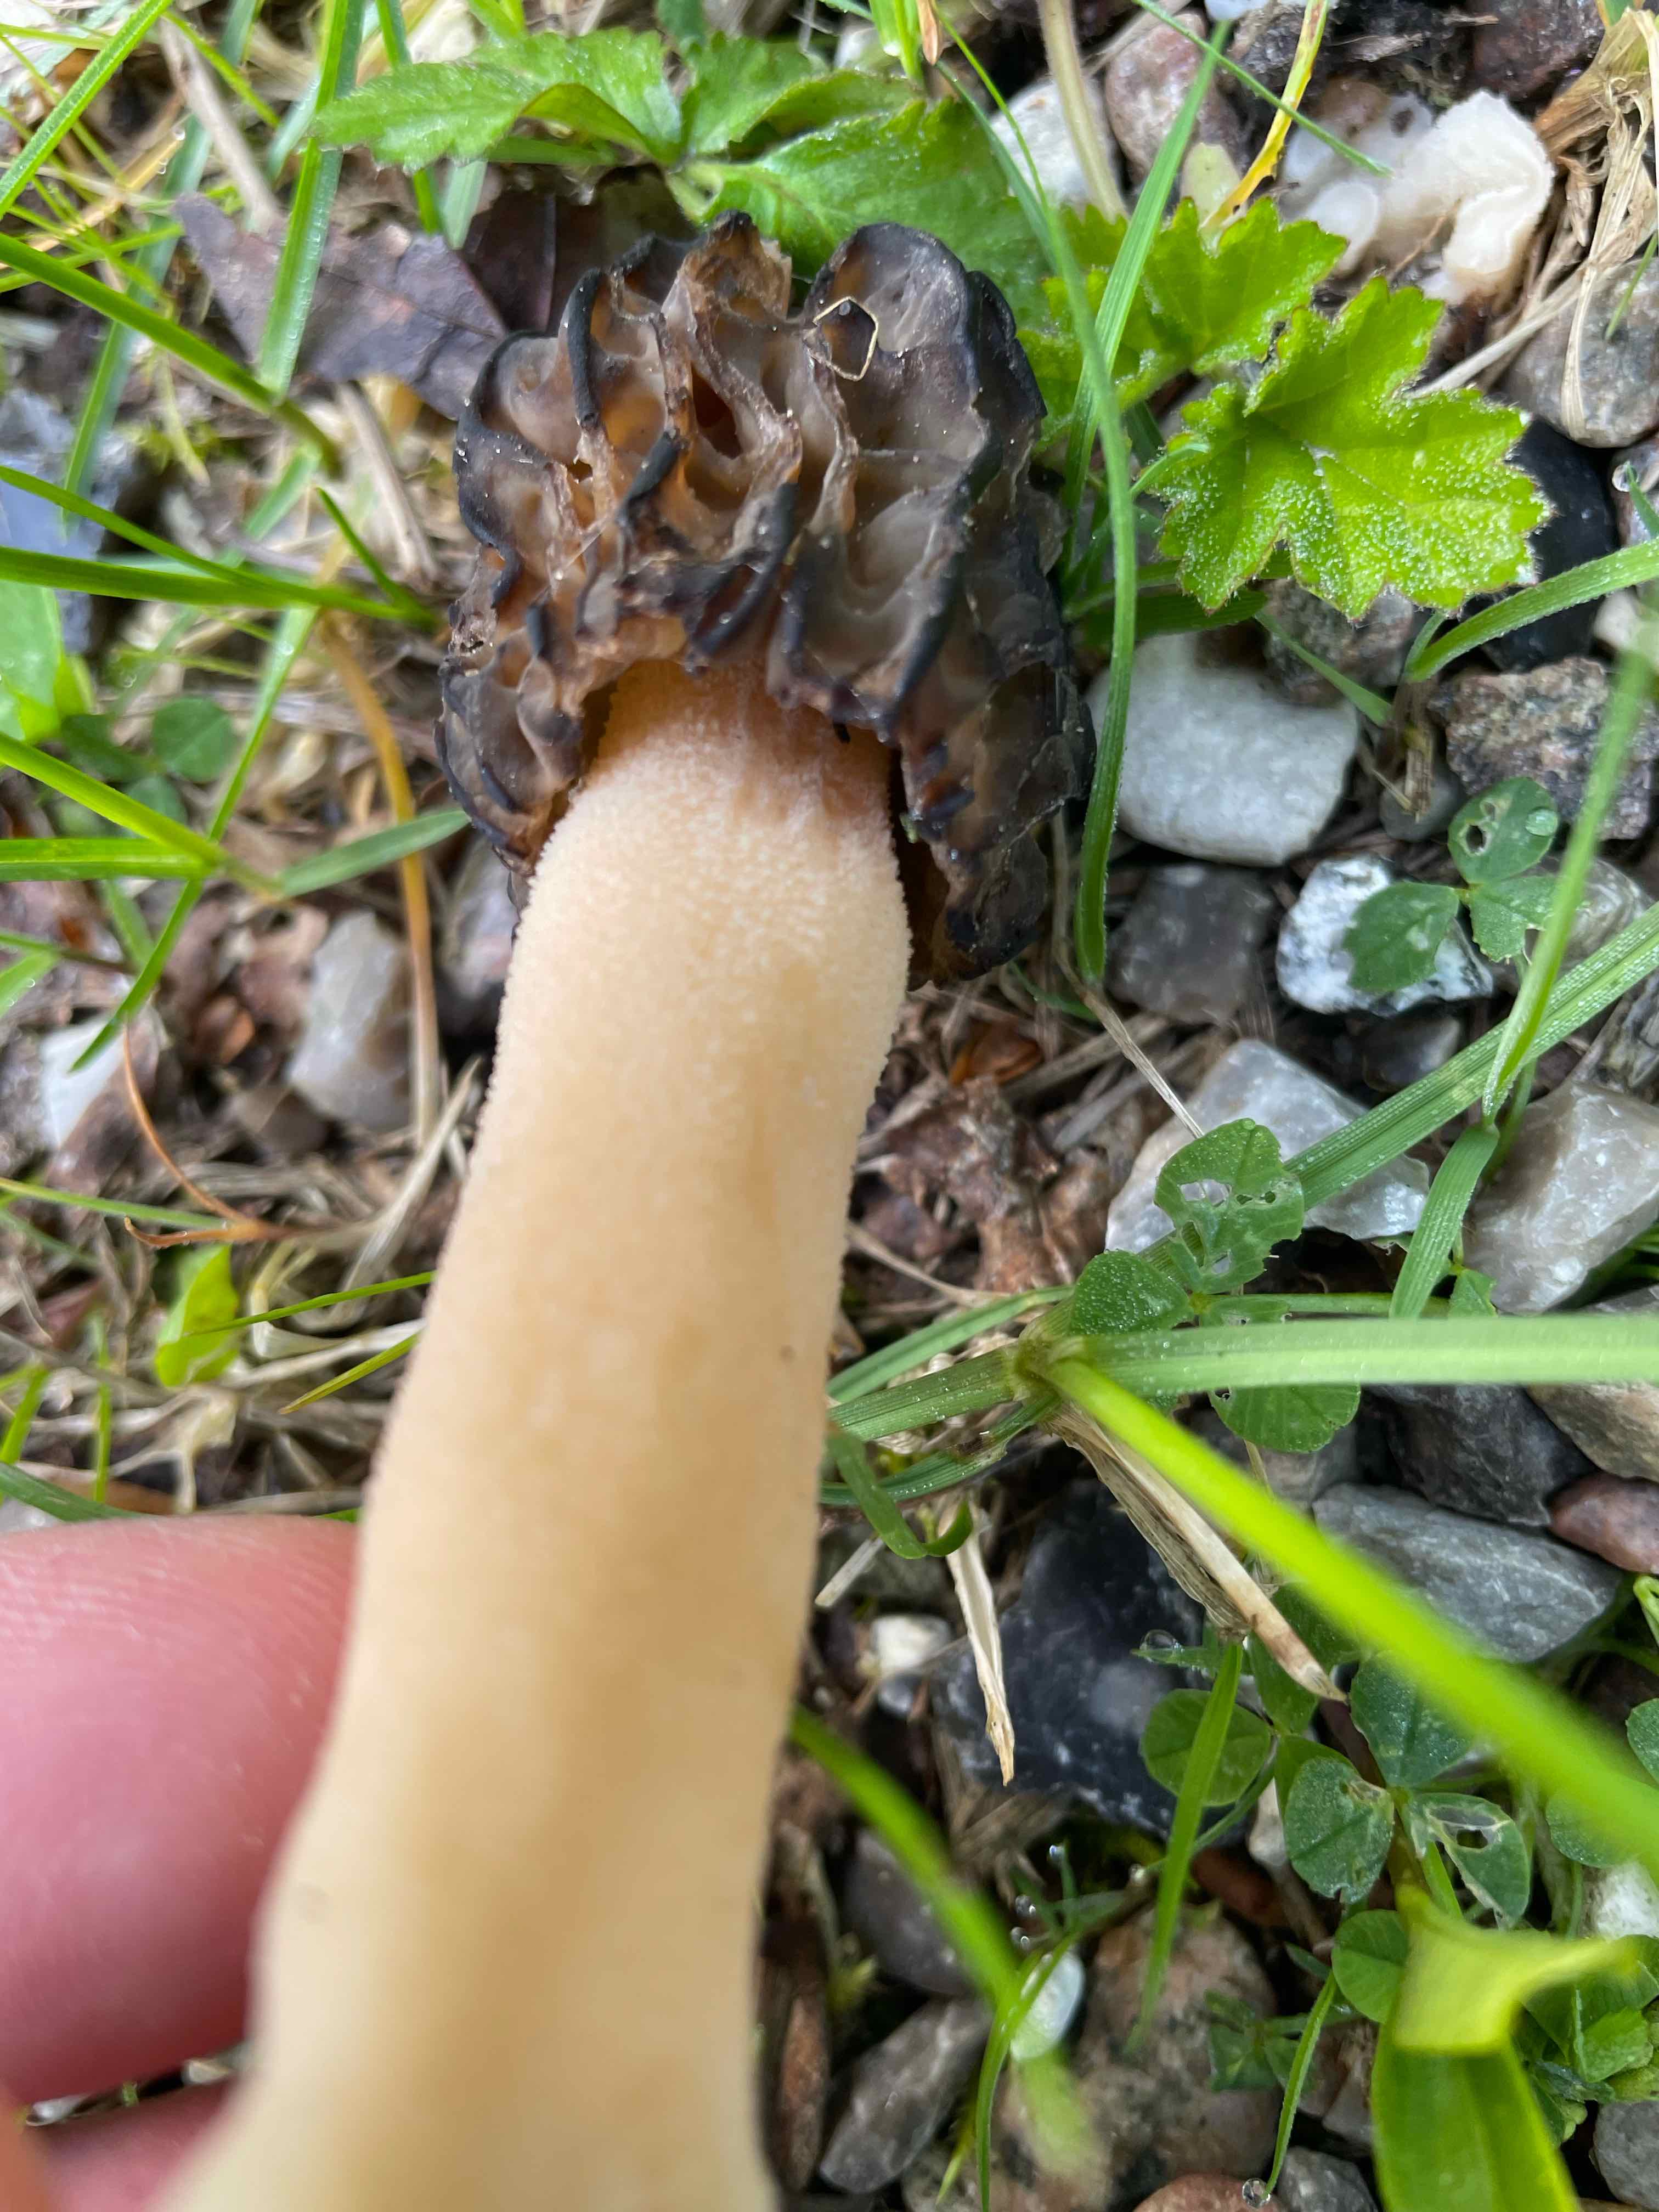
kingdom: Fungi
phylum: Ascomycota
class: Pezizomycetes
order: Pezizales
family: Morchellaceae
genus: Morchella
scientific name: Morchella semilibera
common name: hætte-morkel
